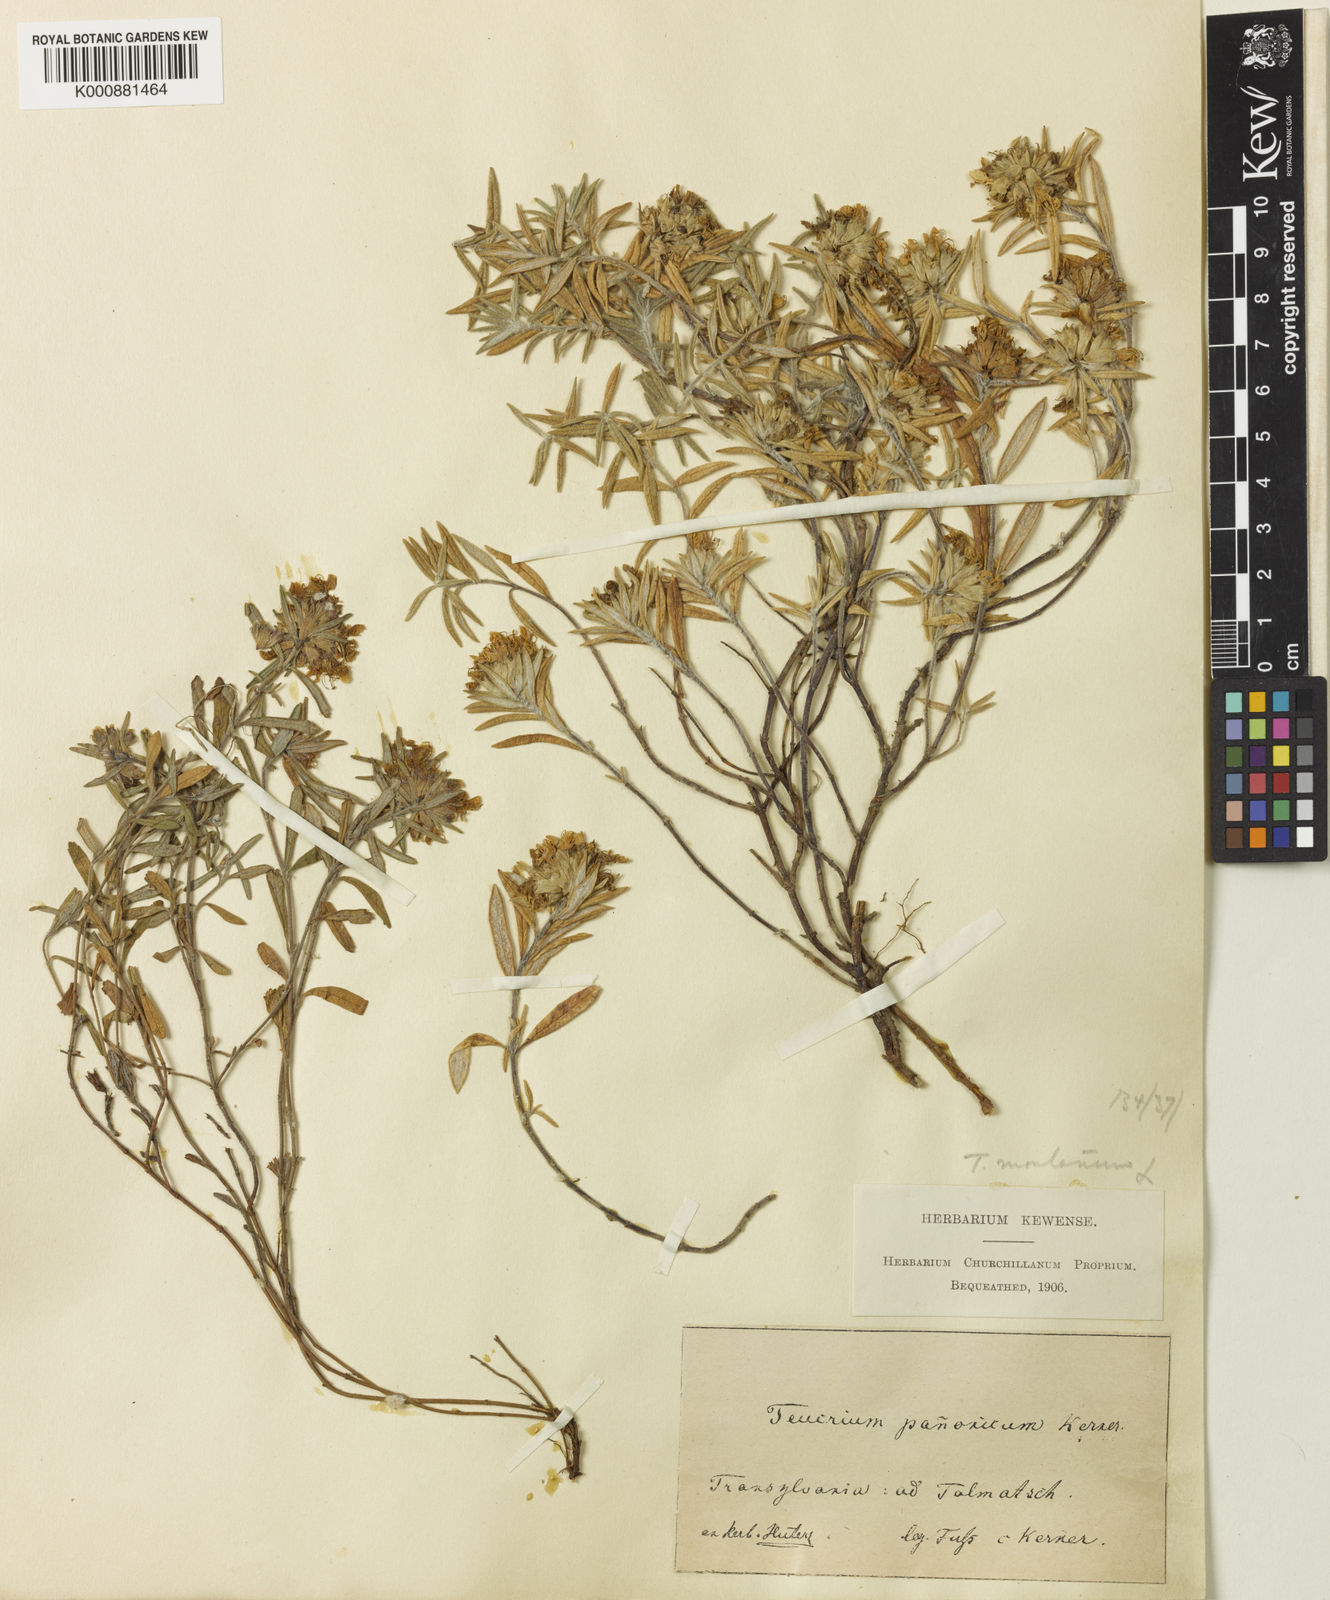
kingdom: Plantae
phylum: Tracheophyta
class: Magnoliopsida
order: Lamiales
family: Lamiaceae
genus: Teucrium
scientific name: Teucrium montanum
